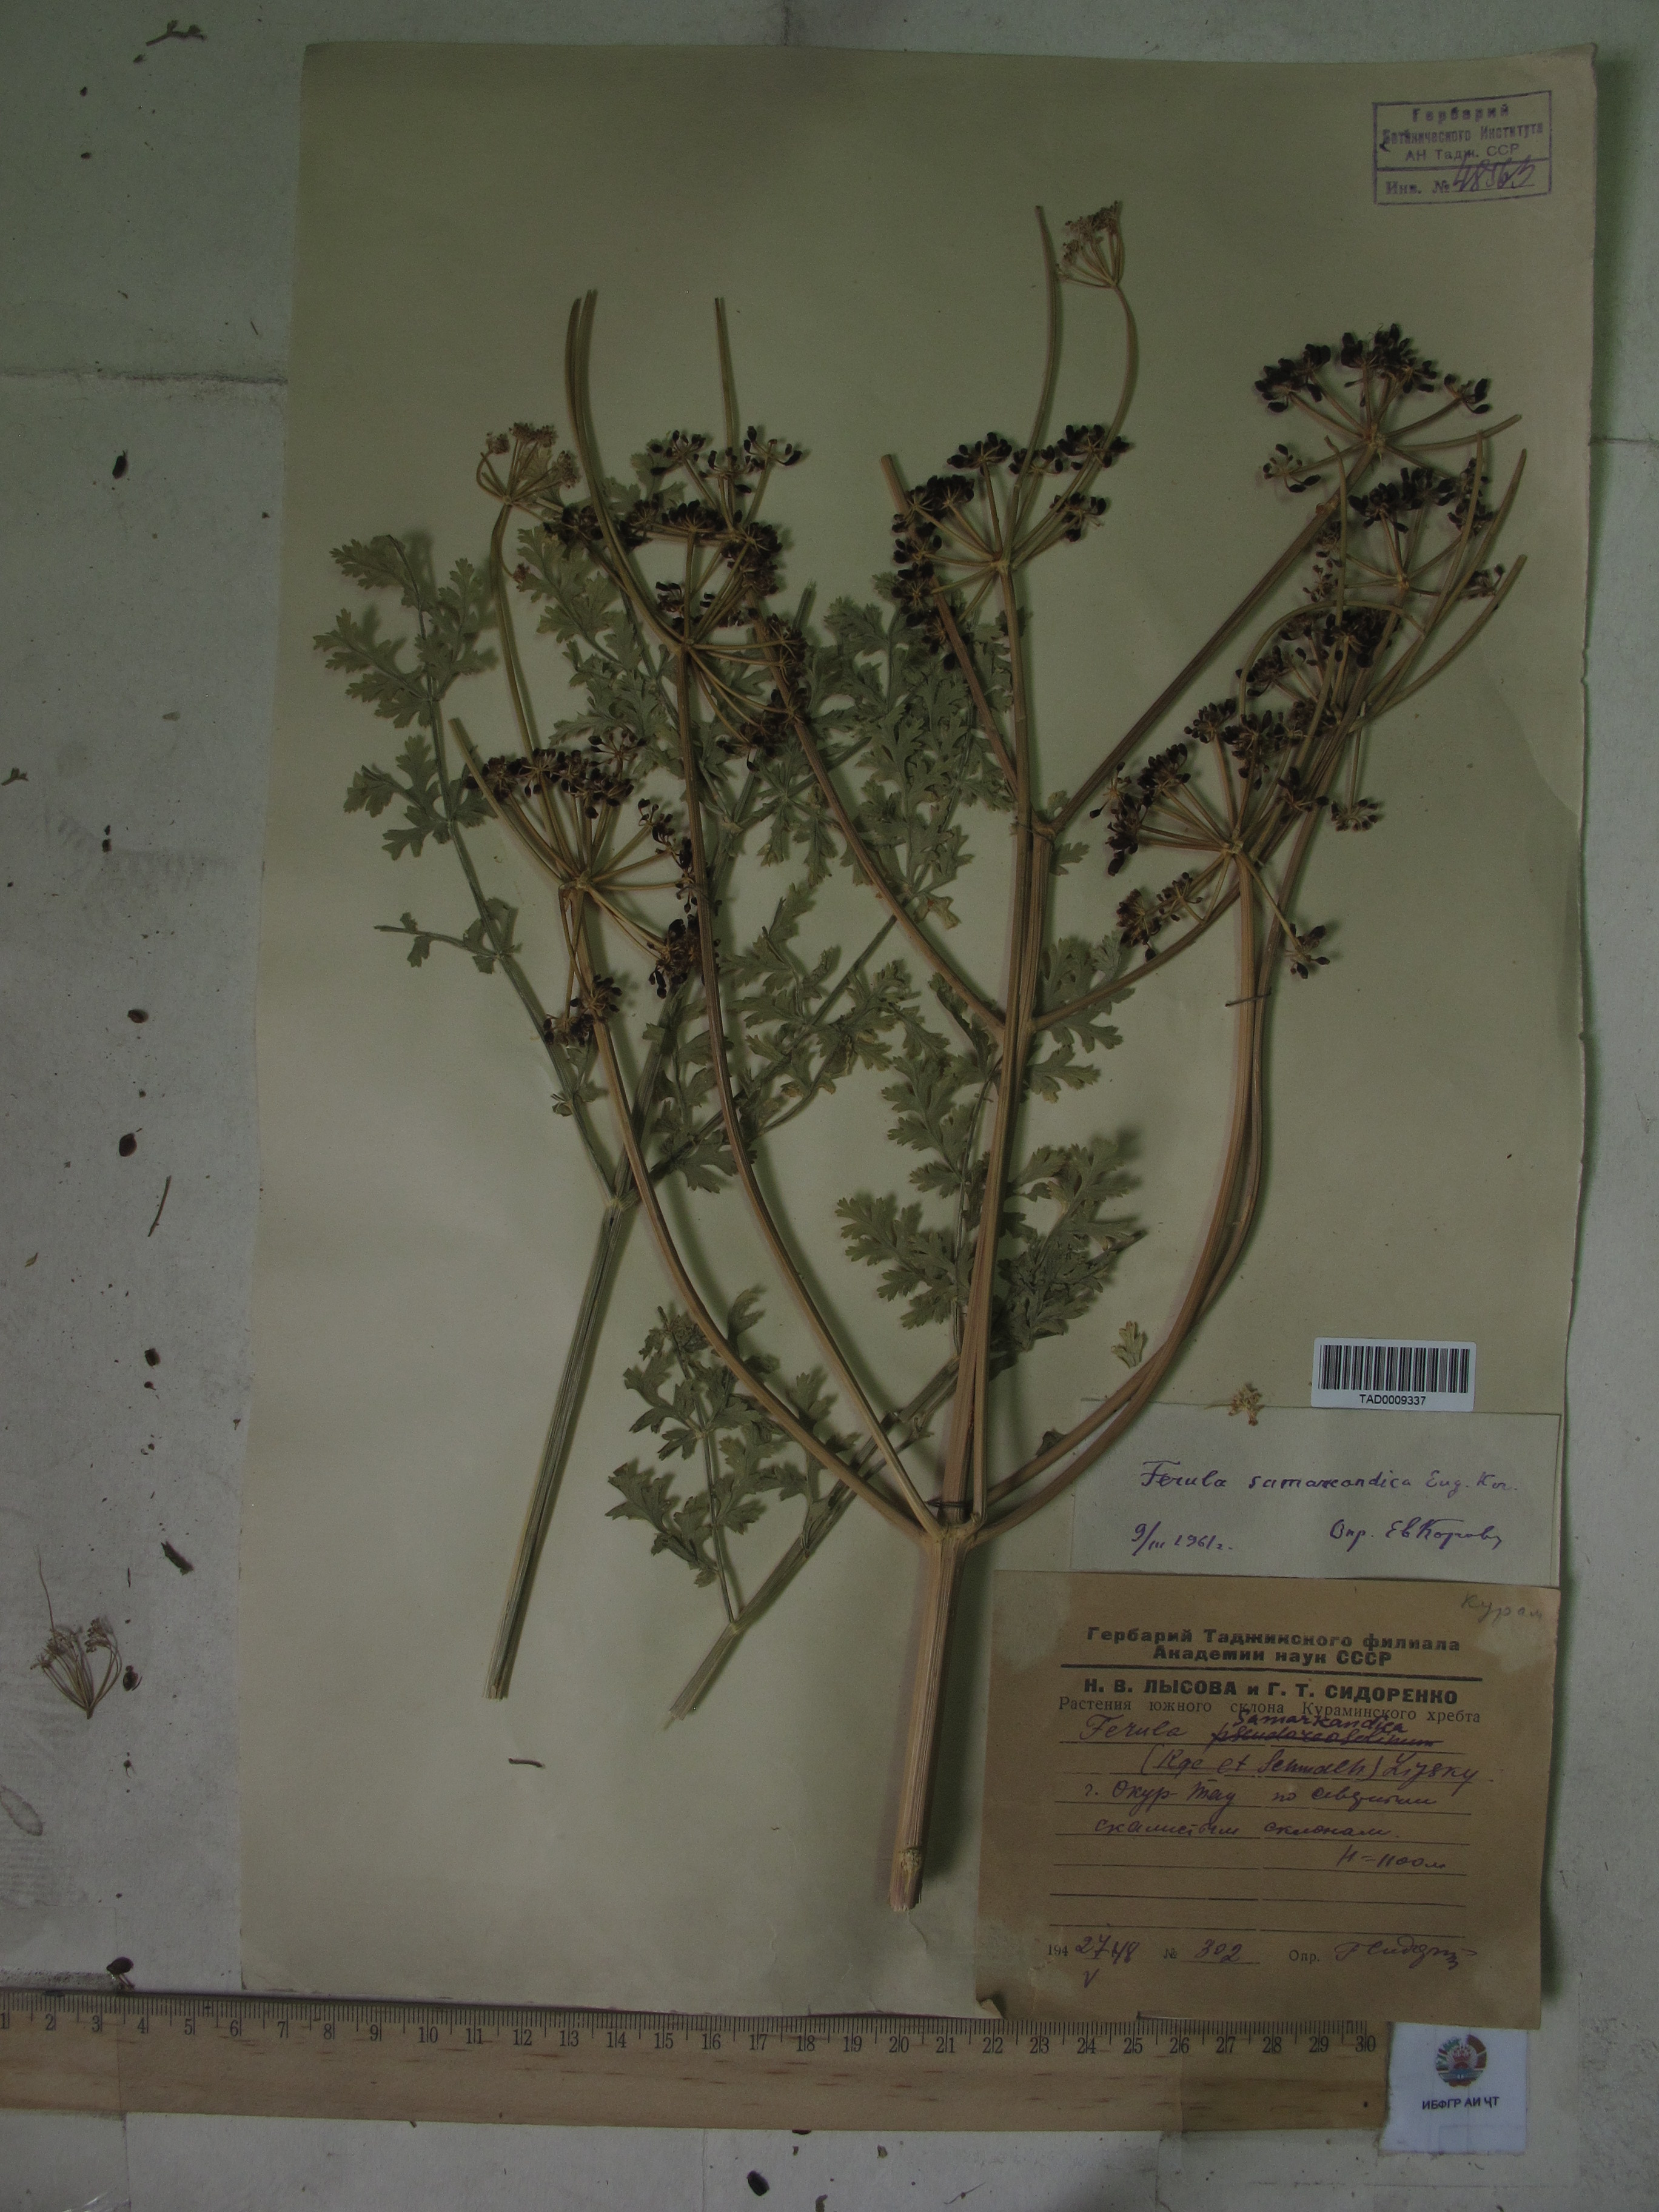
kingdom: Plantae
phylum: Tracheophyta
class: Magnoliopsida
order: Apiales
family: Apiaceae
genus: Ferula
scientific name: Ferula samarkandica
